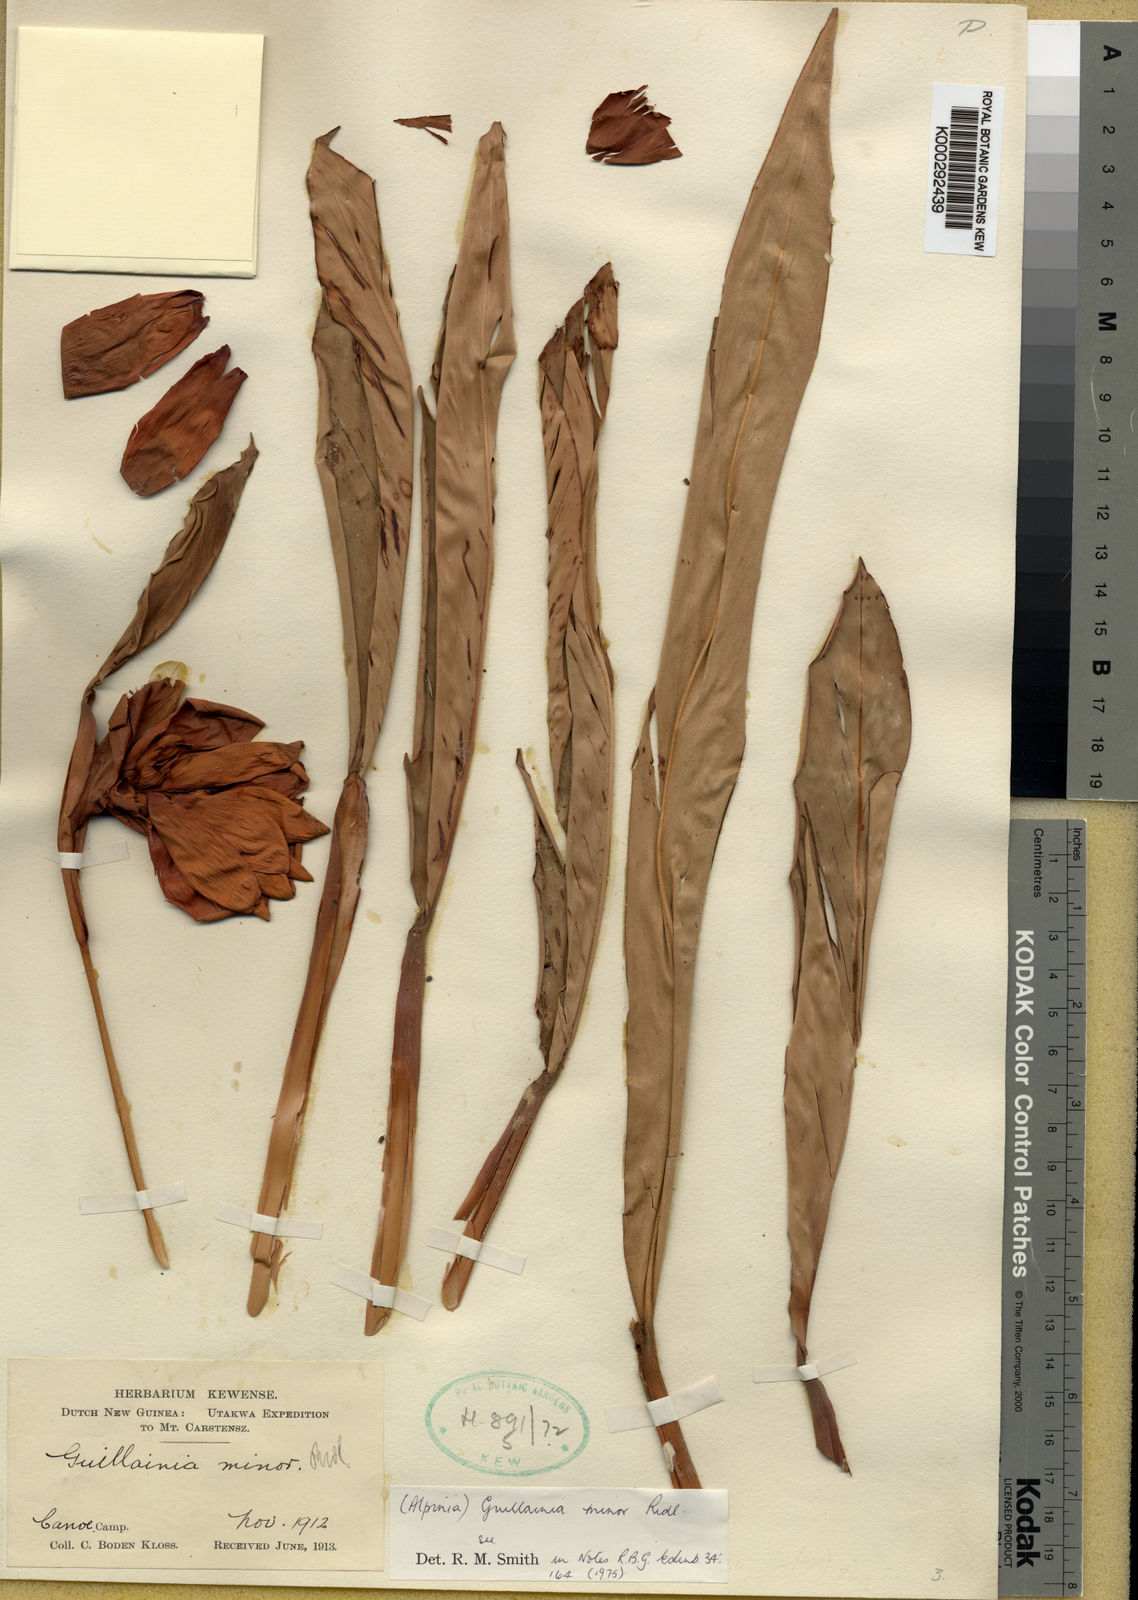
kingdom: Plantae
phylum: Tracheophyta
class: Liliopsida
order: Zingiberales
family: Zingiberaceae
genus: Hornstedtia
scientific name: Hornstedtia minor
